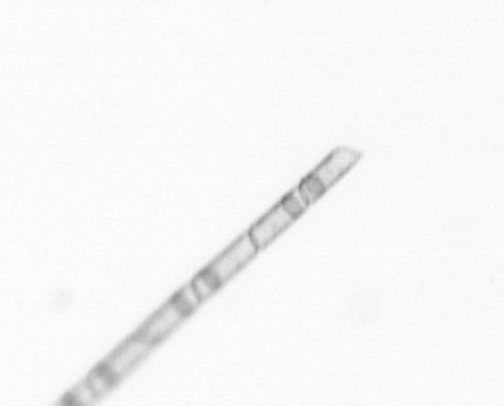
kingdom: Chromista
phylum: Ochrophyta
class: Bacillariophyceae
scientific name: Bacillariophyceae
